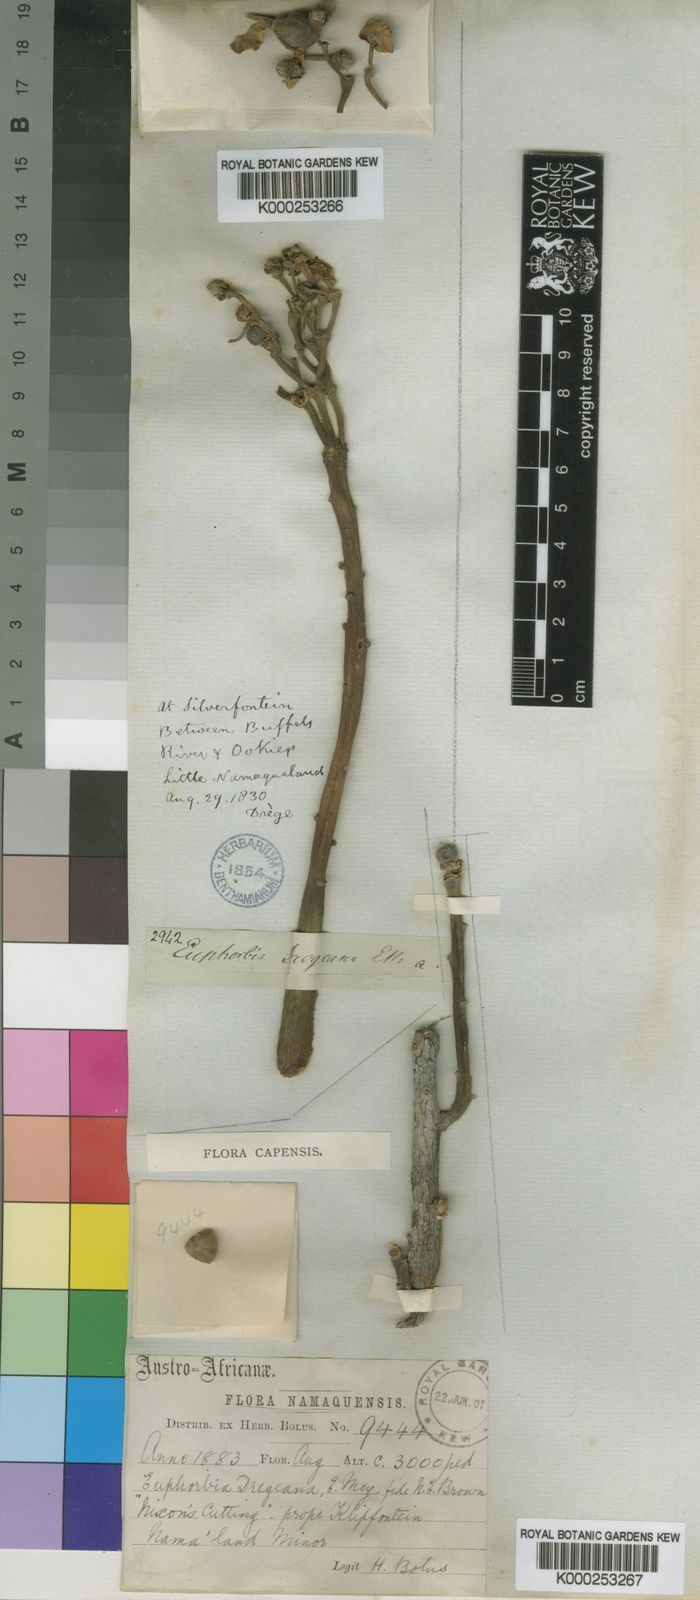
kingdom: Plantae
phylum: Tracheophyta
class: Magnoliopsida
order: Malpighiales
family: Euphorbiaceae
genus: Euphorbia
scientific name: Euphorbia
